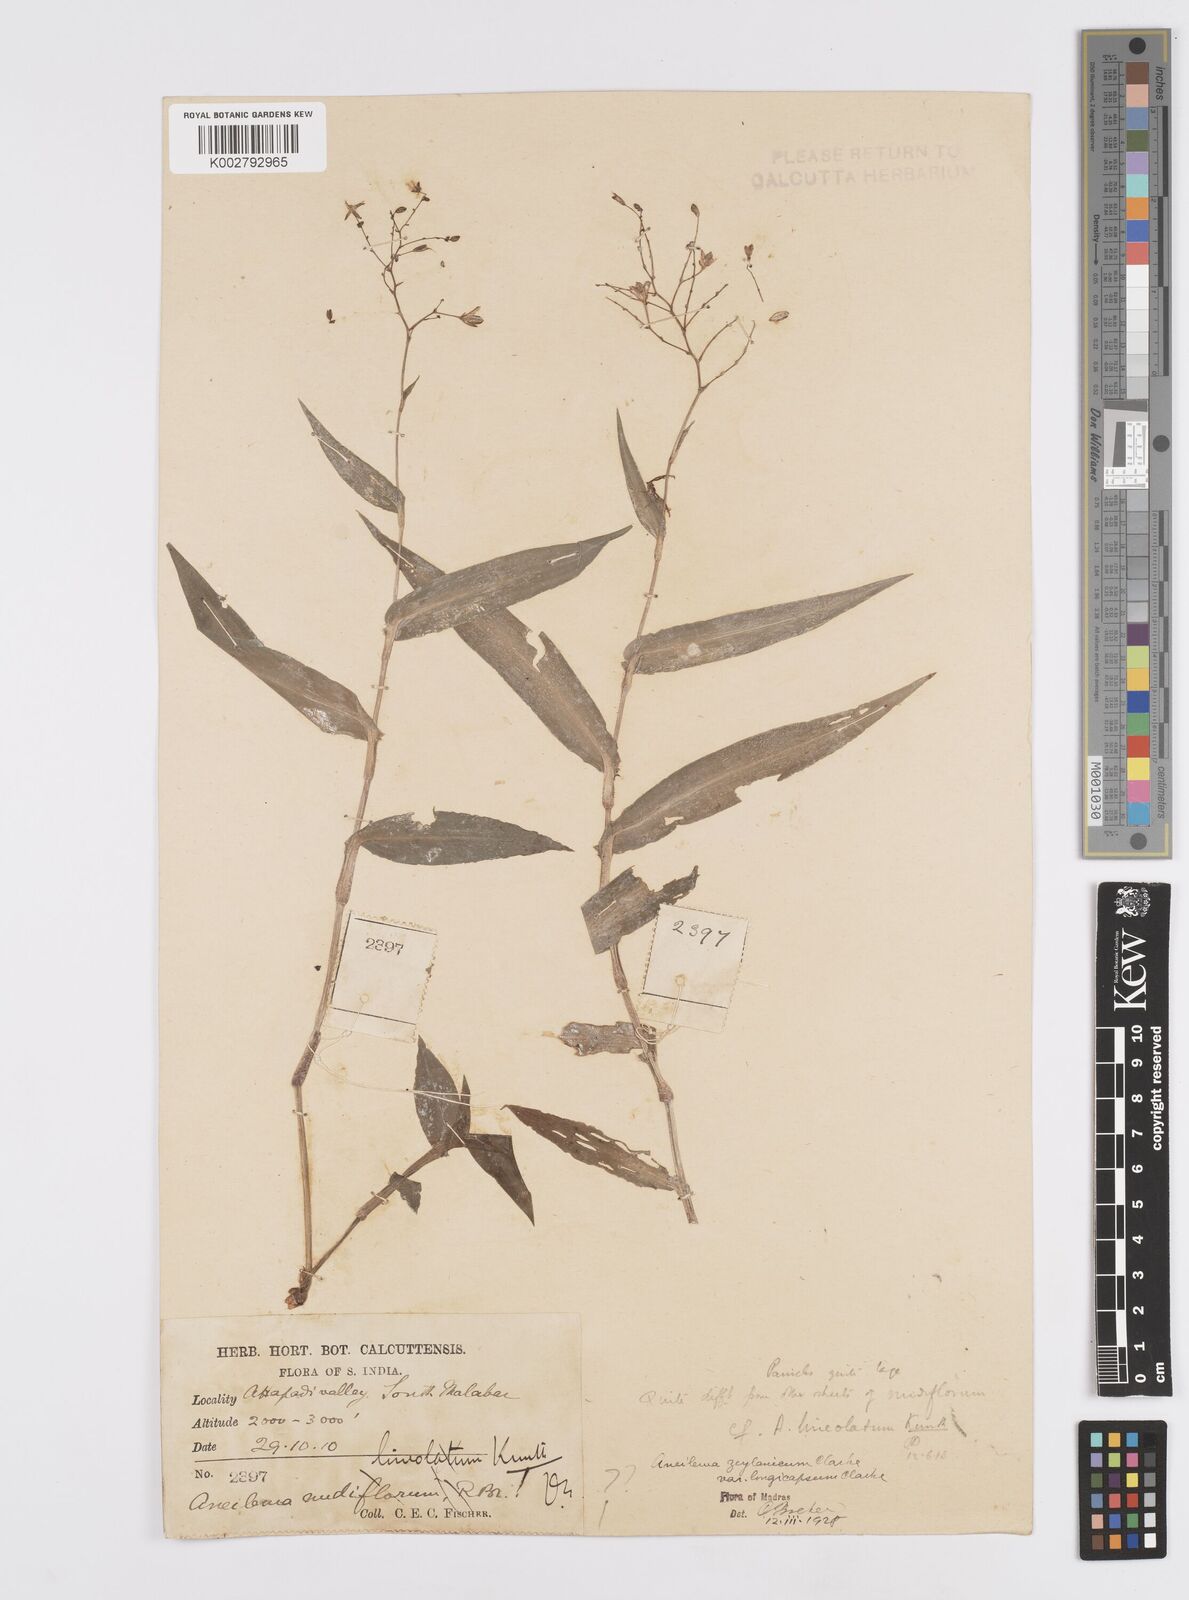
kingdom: Plantae
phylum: Tracheophyta
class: Liliopsida
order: Commelinales
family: Commelinaceae
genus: Murdannia
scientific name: Murdannia zeylanica
